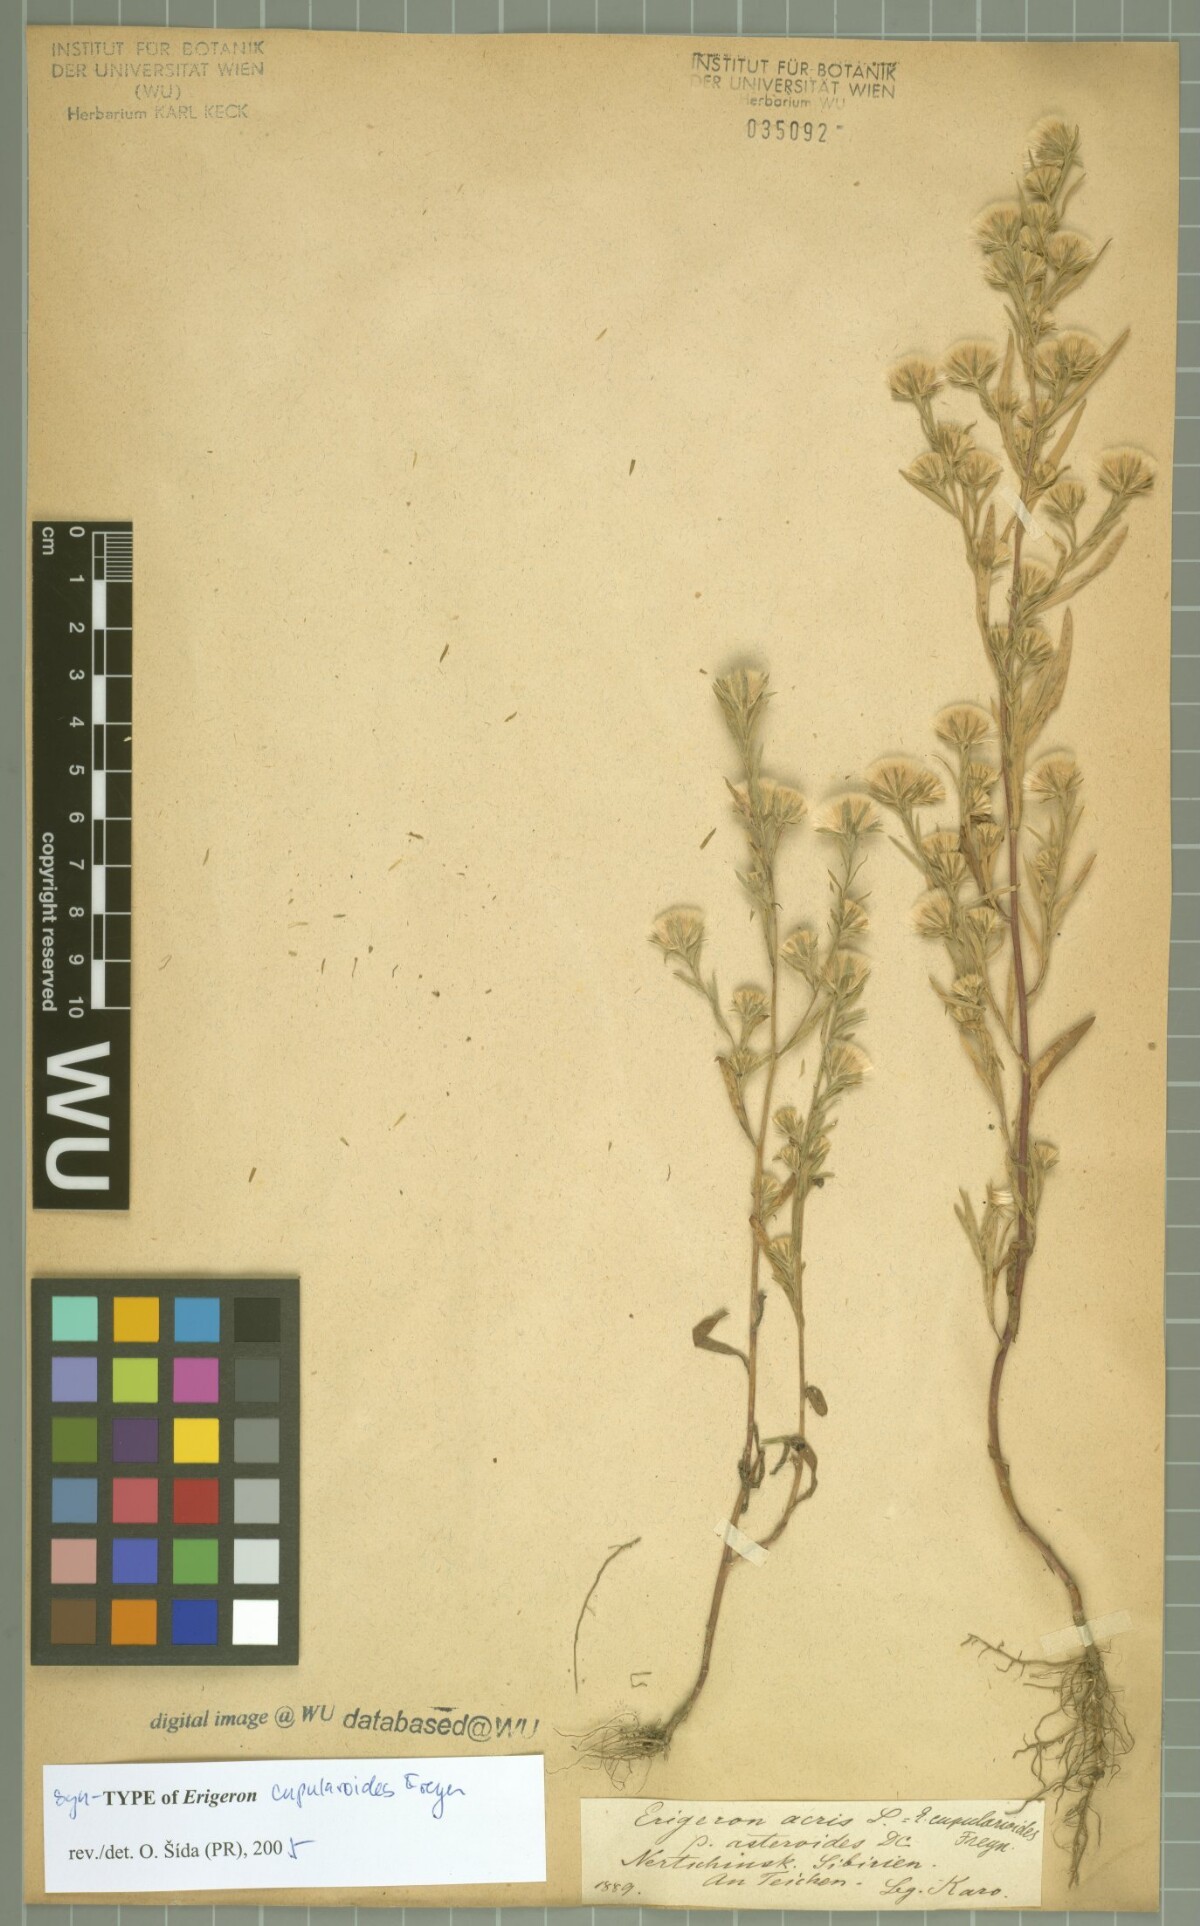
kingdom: Plantae
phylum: Tracheophyta
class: Magnoliopsida
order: Asterales
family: Asteraceae
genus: Erigeron
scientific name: Erigeron cupularoides
